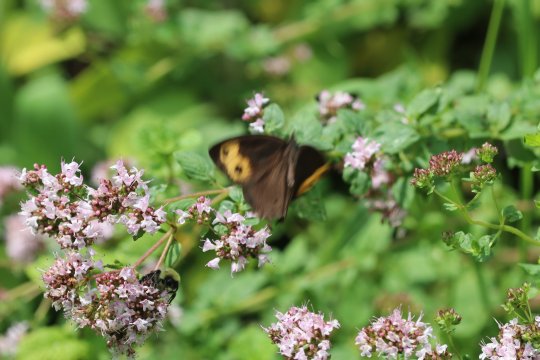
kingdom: Animalia
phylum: Arthropoda
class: Insecta
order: Lepidoptera
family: Nymphalidae
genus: Cercyonis
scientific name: Cercyonis pegala
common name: Common Wood-Nymph
